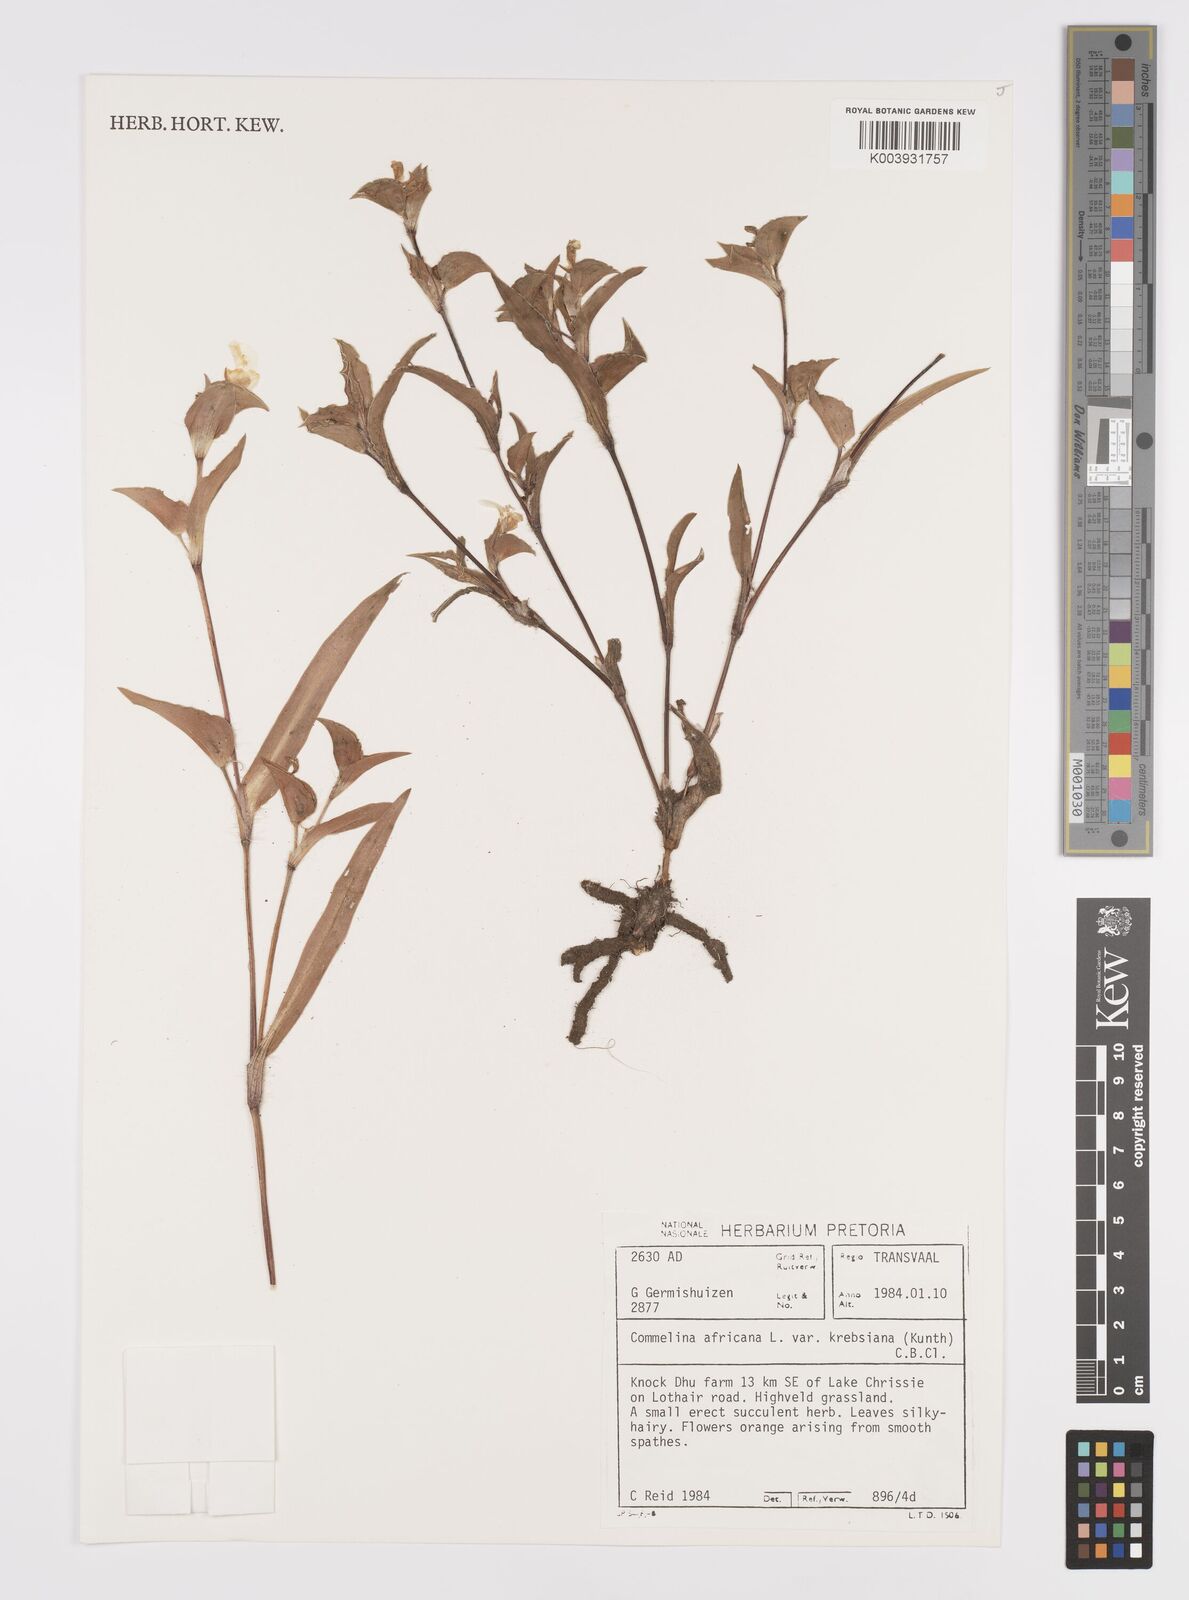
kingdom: Plantae
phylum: Tracheophyta
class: Liliopsida
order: Commelinales
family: Commelinaceae
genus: Commelina
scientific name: Commelina africana
